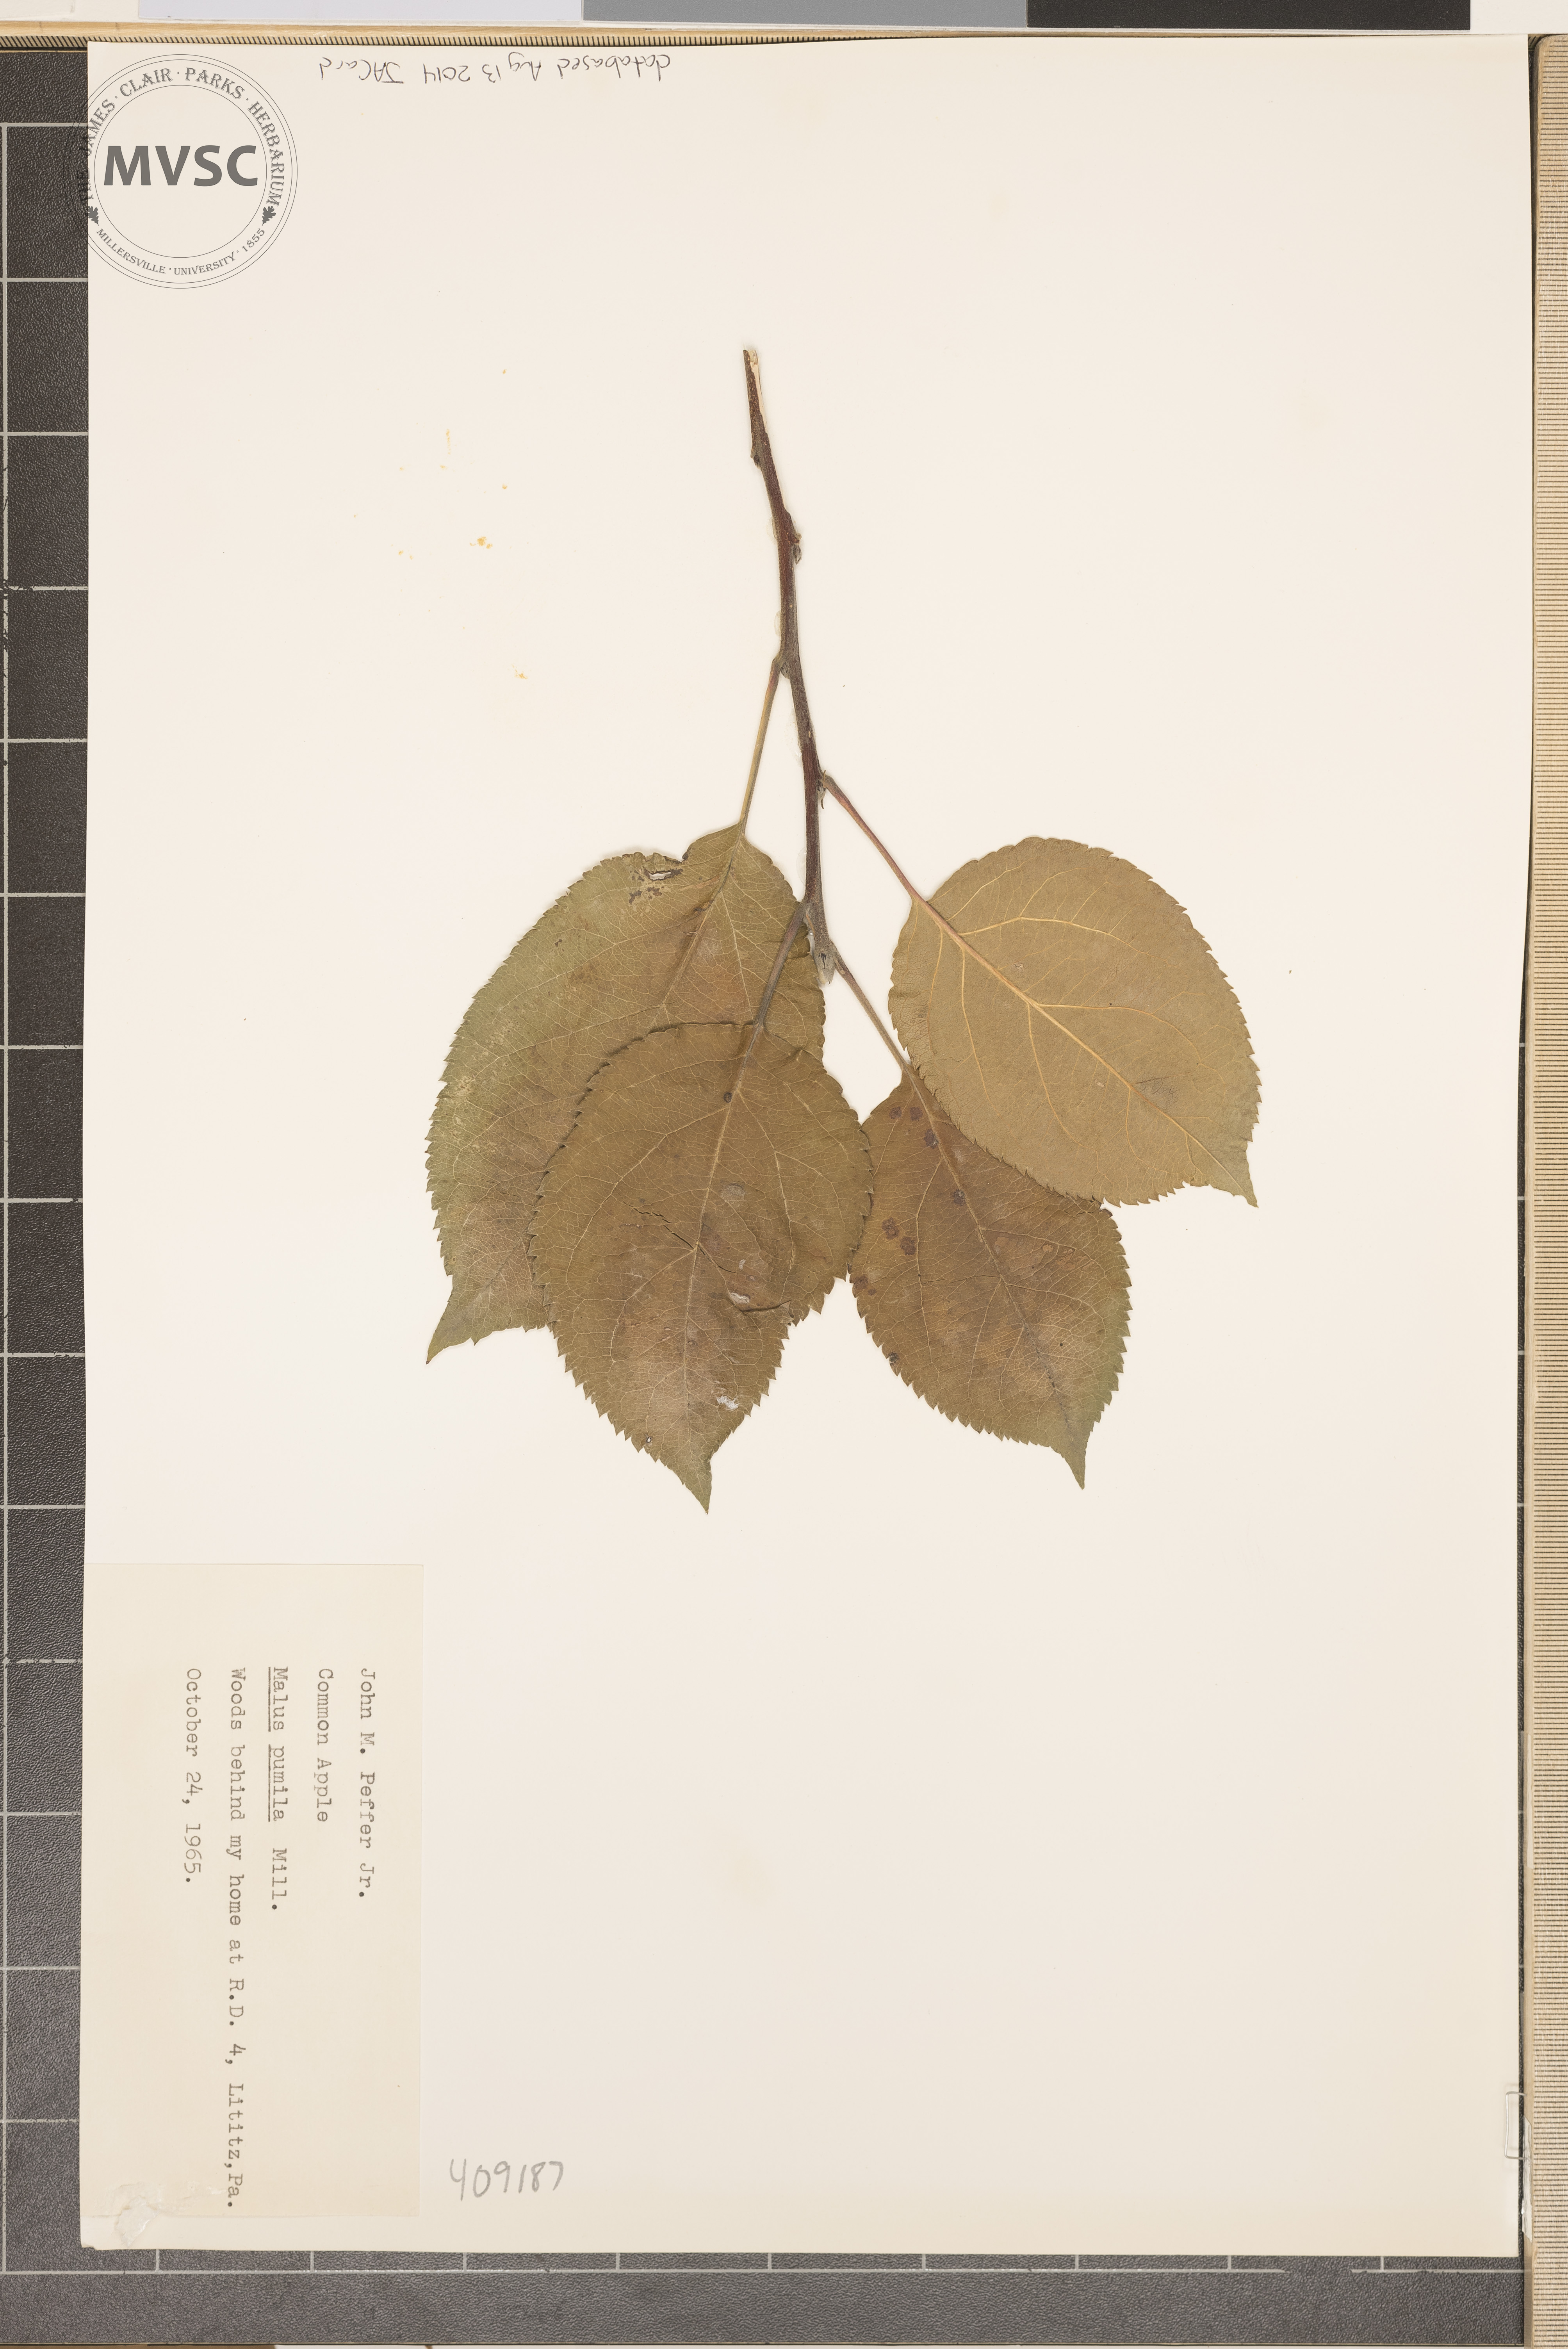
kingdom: Plantae
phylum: Tracheophyta
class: Magnoliopsida
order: Rosales
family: Rosaceae
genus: Malus
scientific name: Malus domestica
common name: Apple
